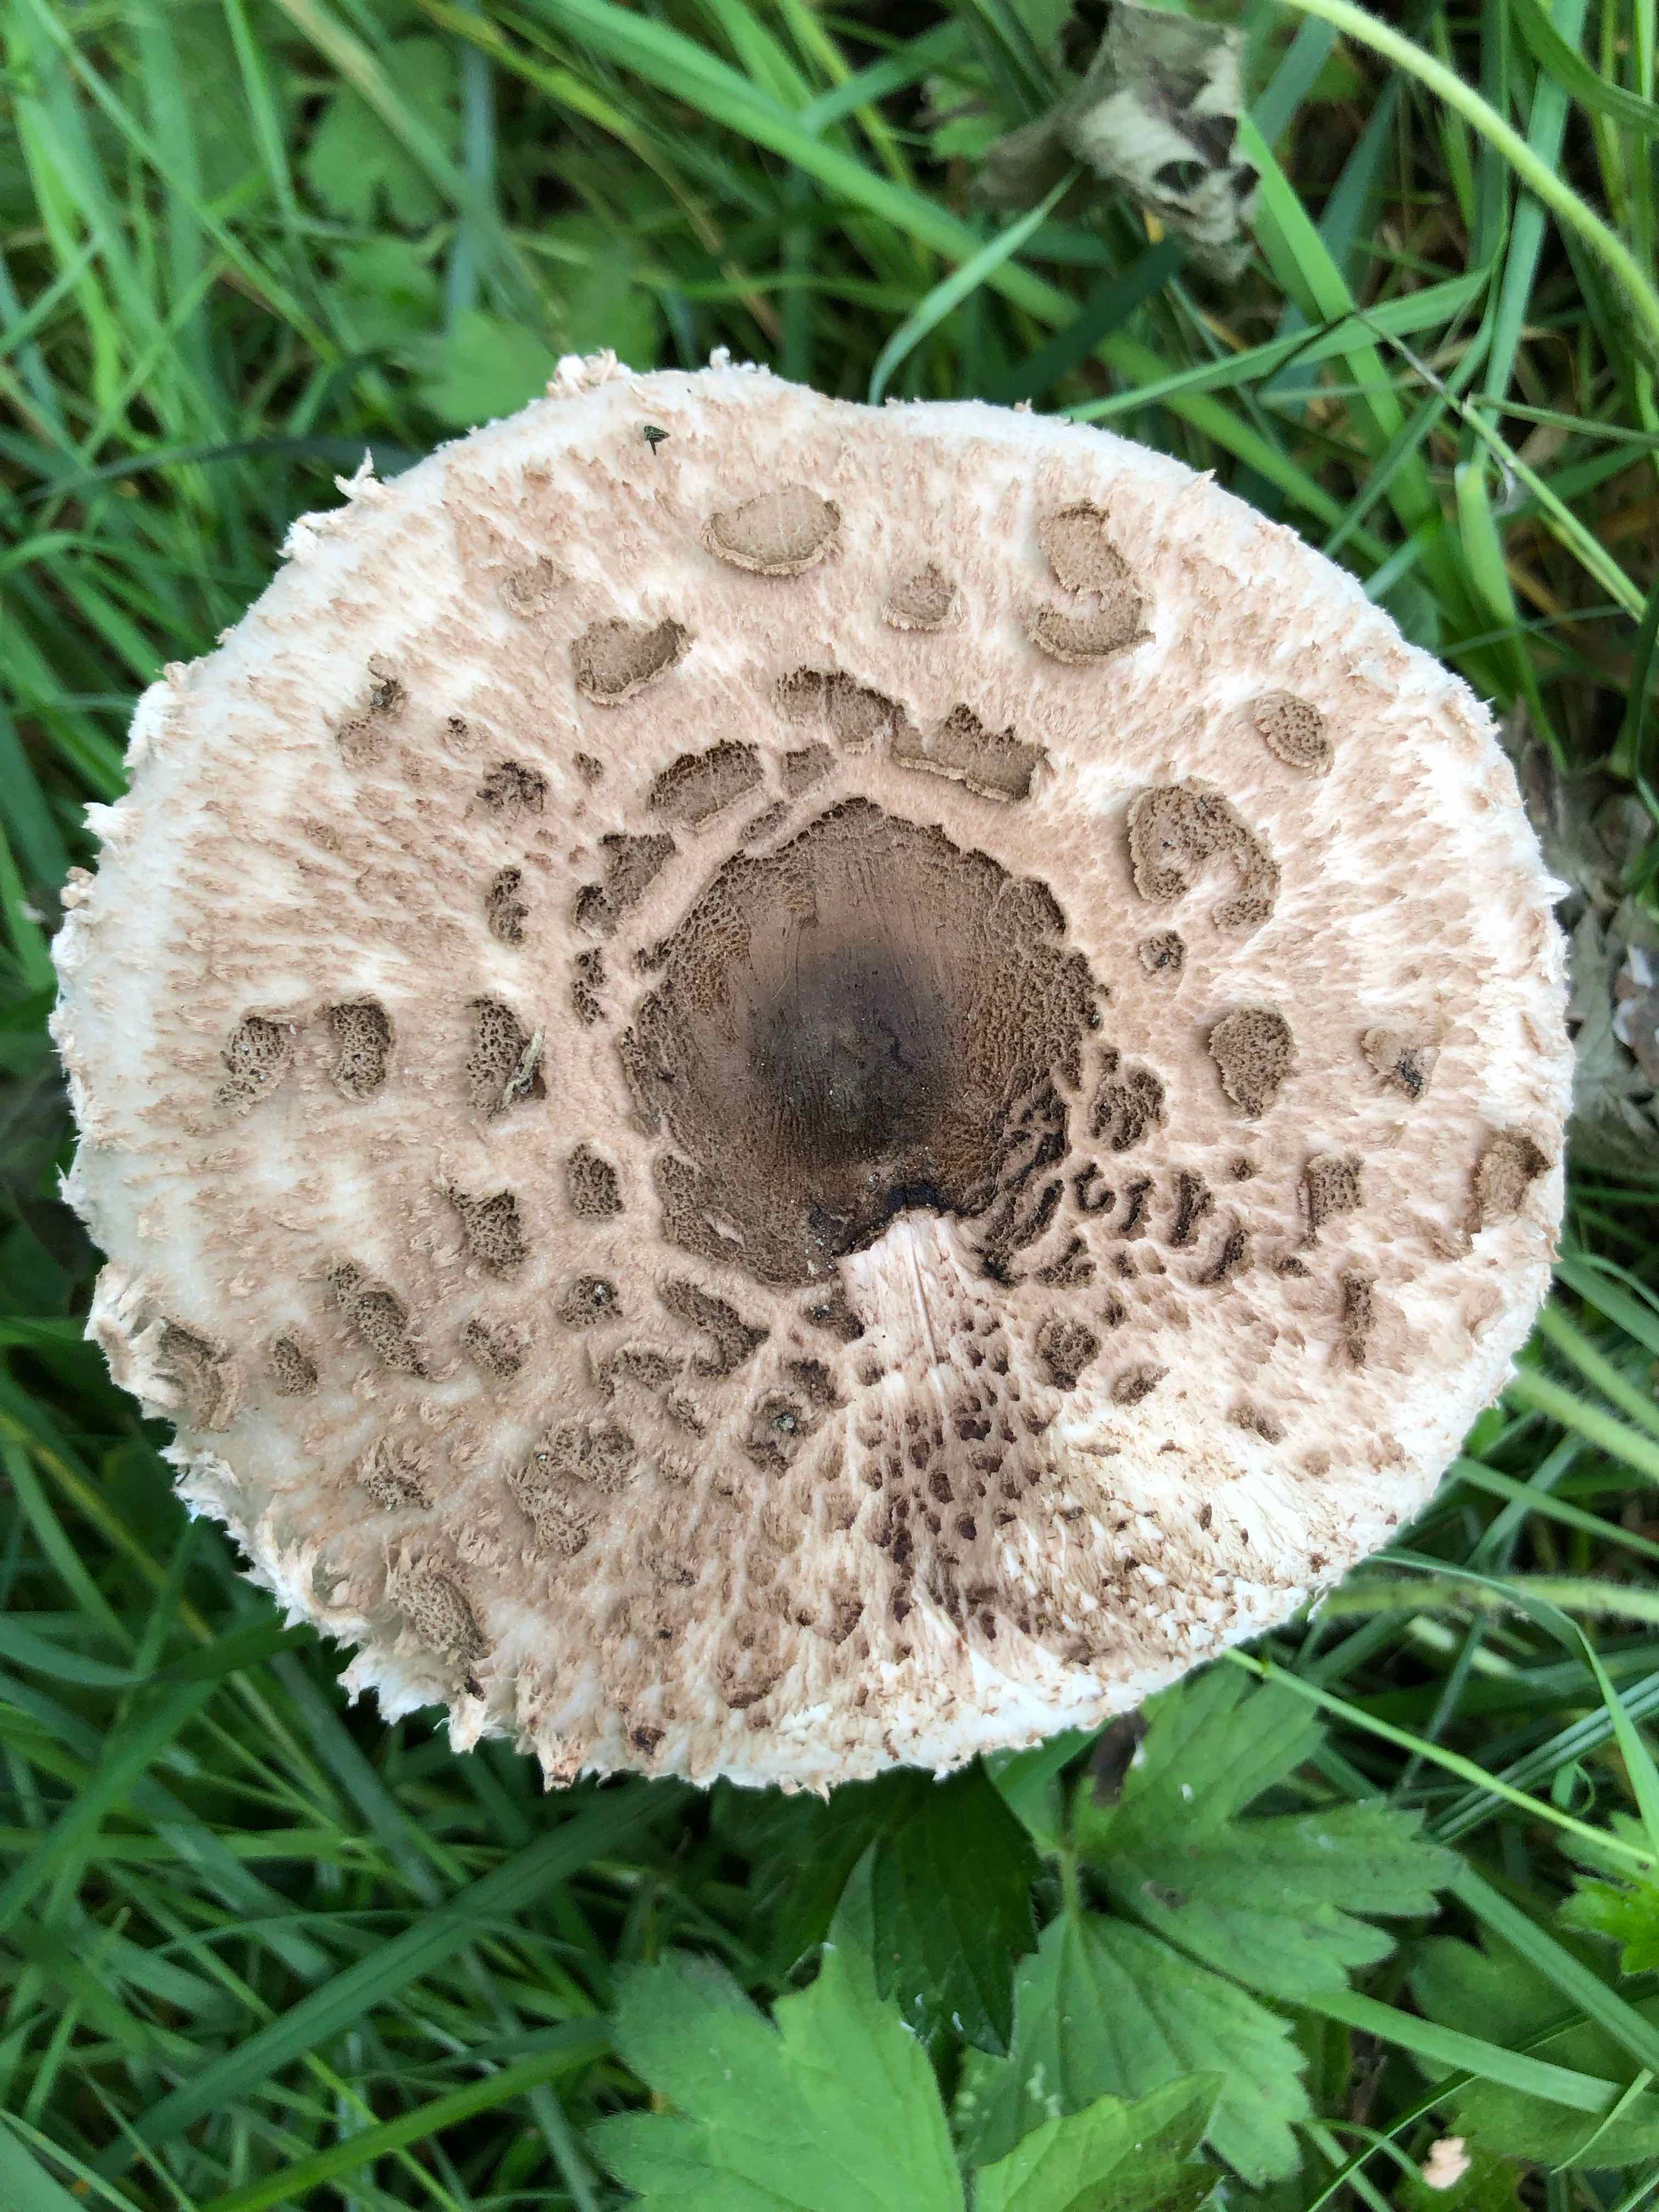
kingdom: Fungi
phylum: Basidiomycota
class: Agaricomycetes
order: Agaricales
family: Agaricaceae
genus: Macrolepiota
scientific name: Macrolepiota procera
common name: stor kæmpeparasolhat
